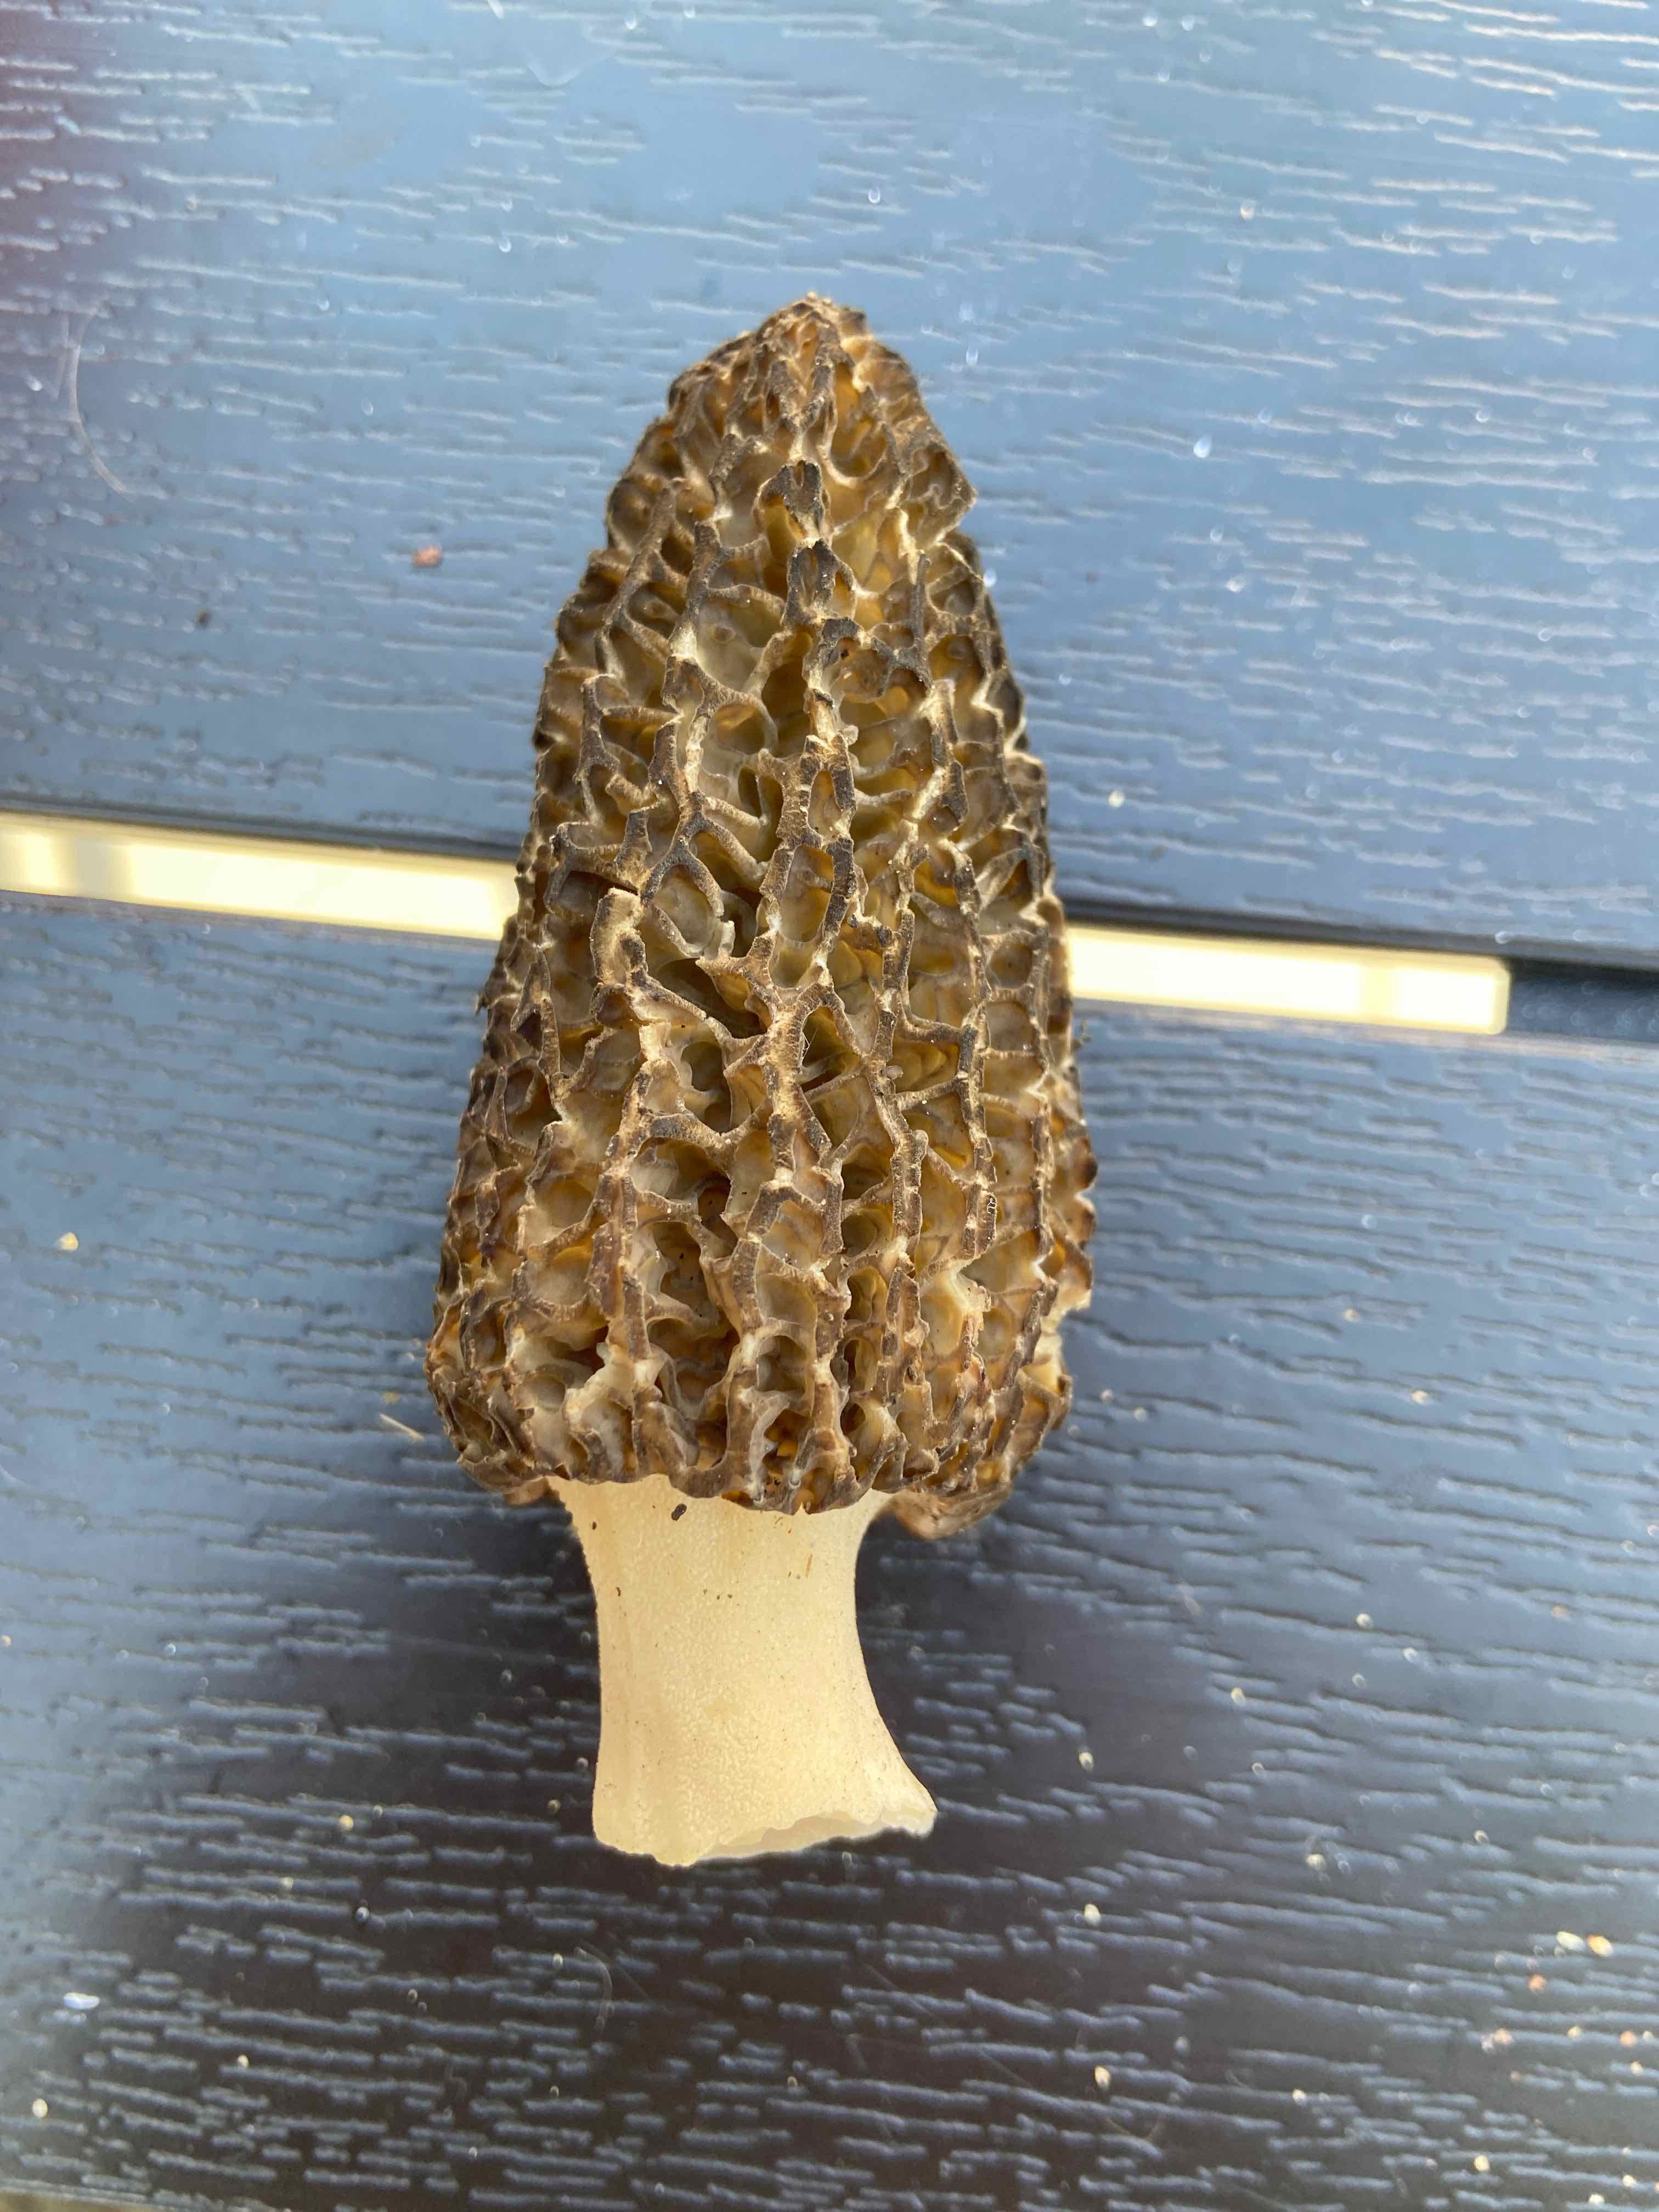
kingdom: Fungi
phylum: Ascomycota
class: Pezizomycetes
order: Pezizales
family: Morchellaceae
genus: Morchella
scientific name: Morchella
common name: morkel
